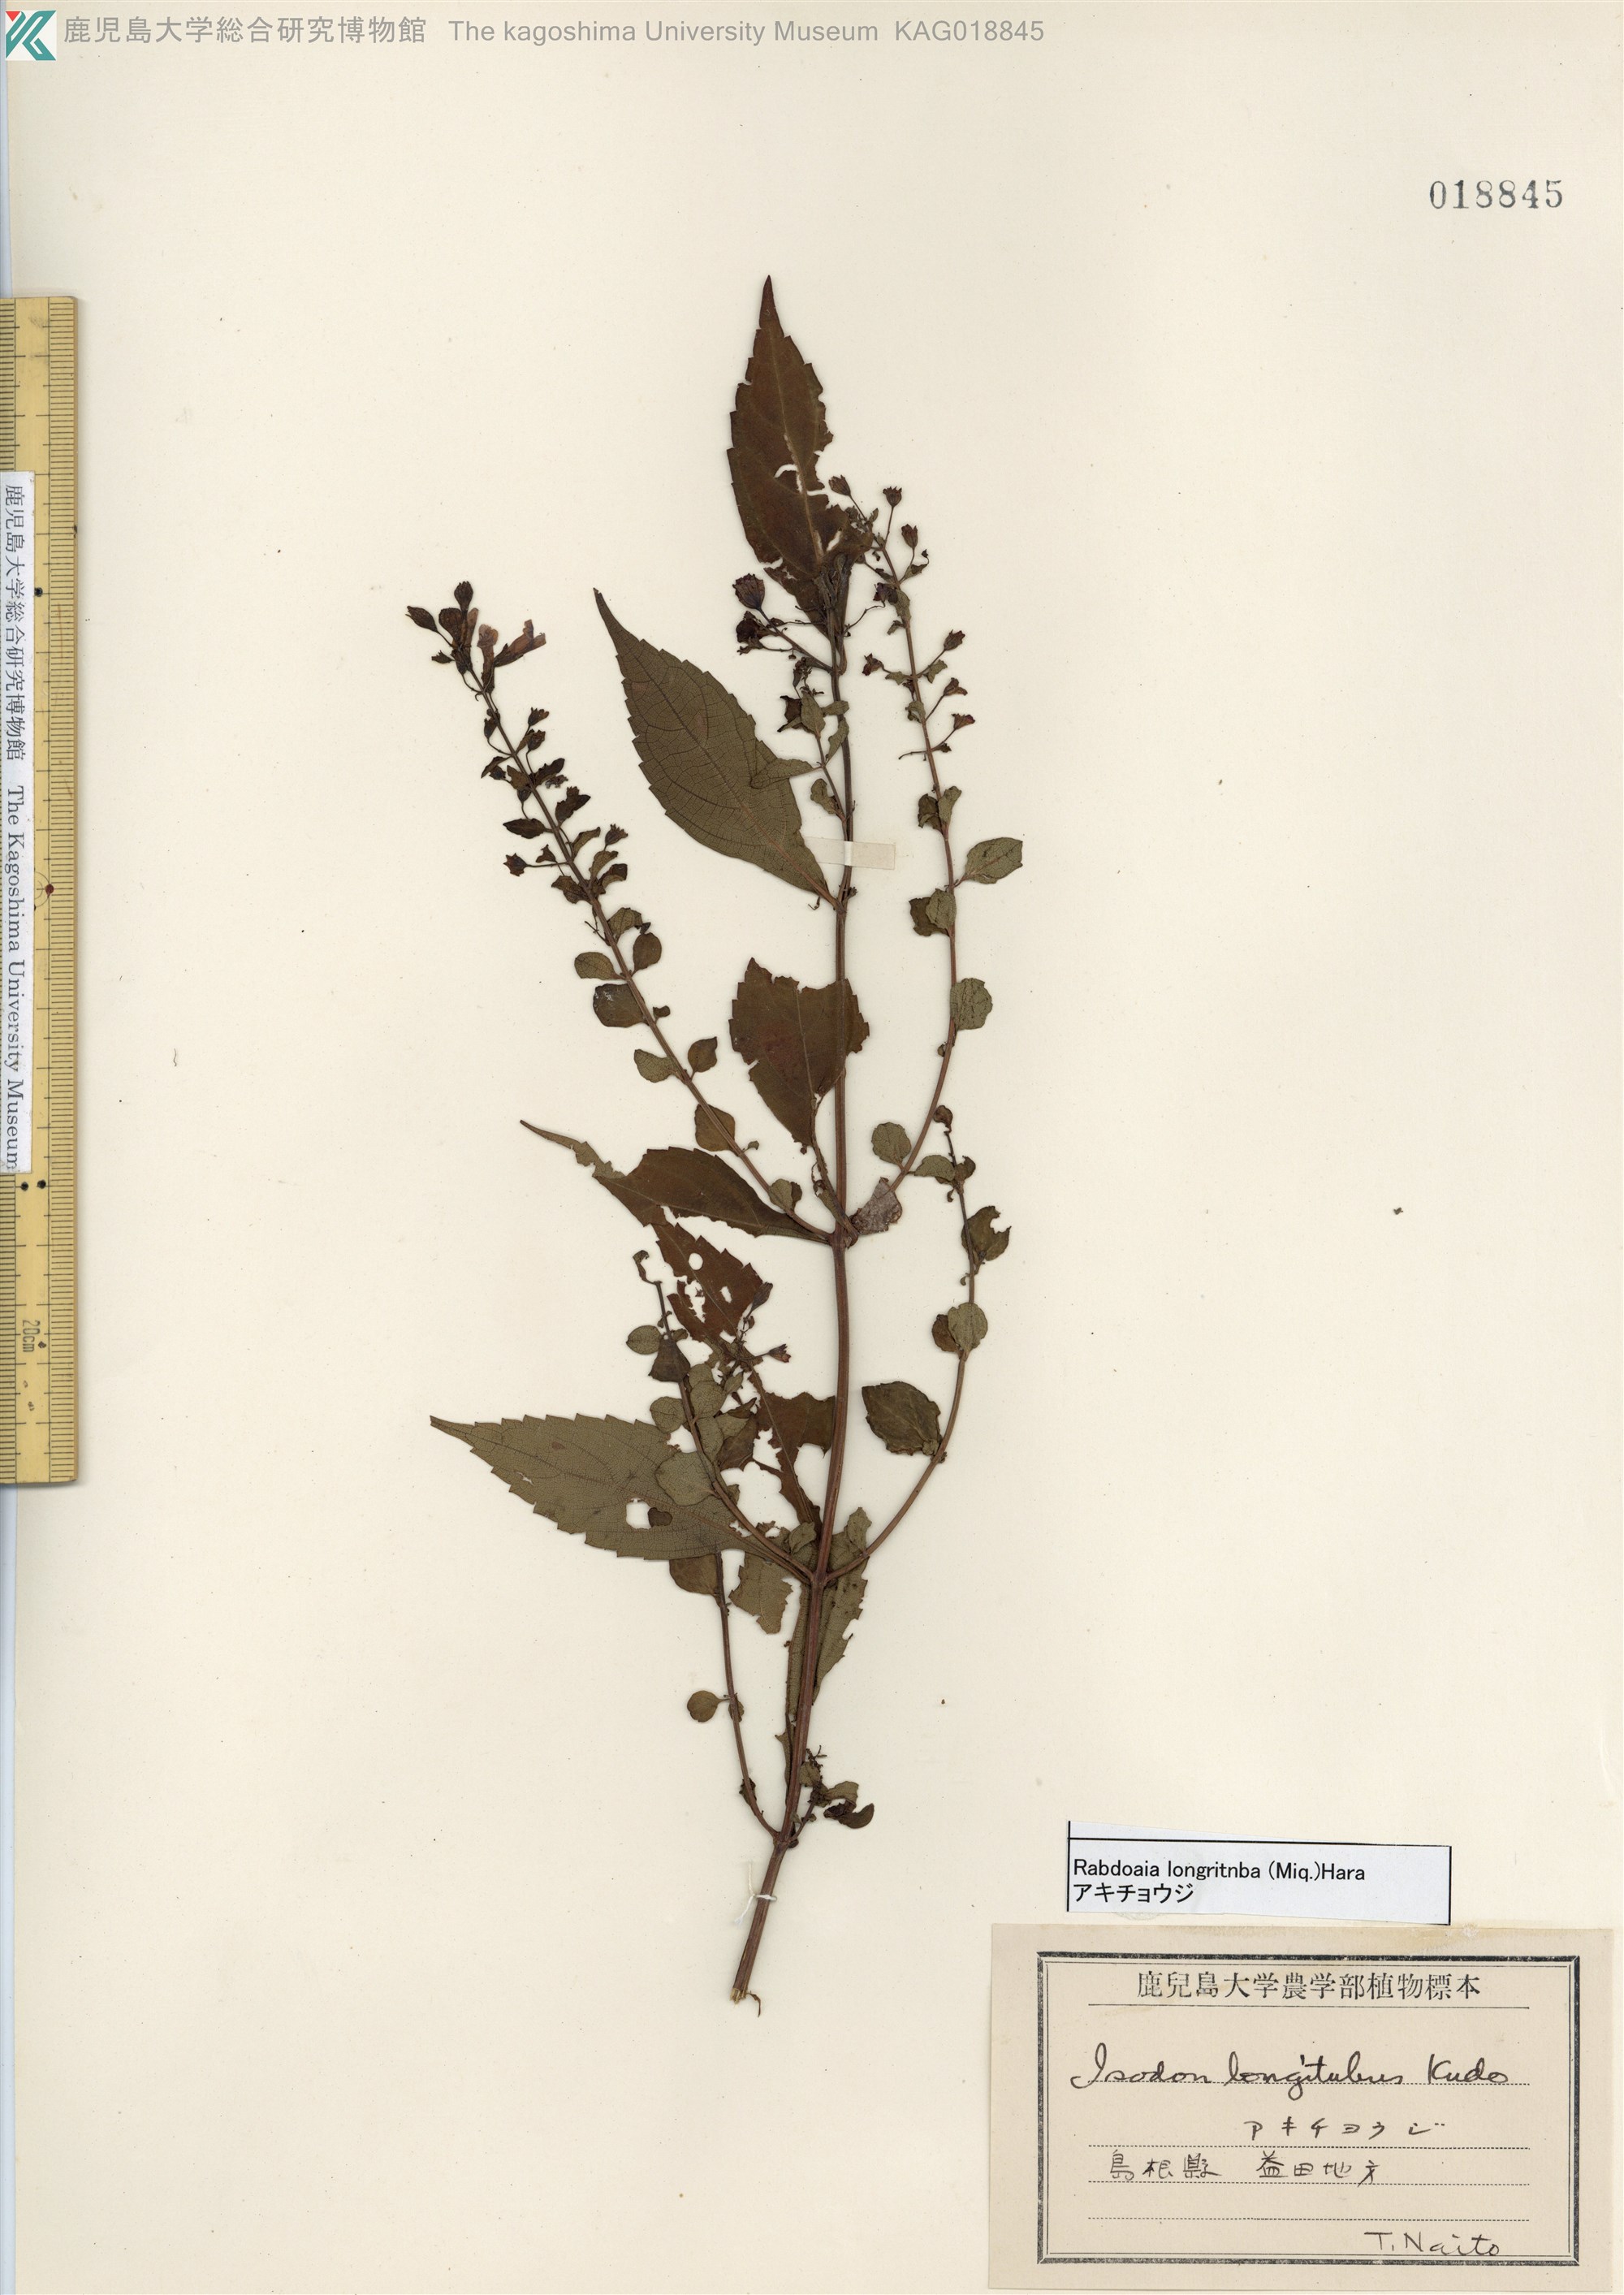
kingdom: Plantae
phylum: Tracheophyta
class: Magnoliopsida
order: Lamiales
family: Lamiaceae
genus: Isodon
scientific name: Isodon longitubus
